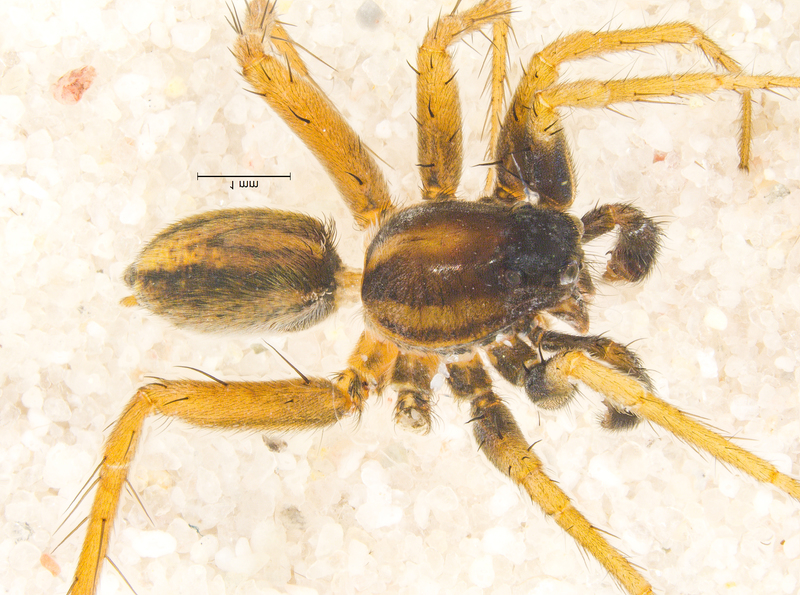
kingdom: Animalia
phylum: Arthropoda
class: Arachnida
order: Araneae
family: Lycosidae
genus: Pardosa
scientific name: Pardosa bifasciata
